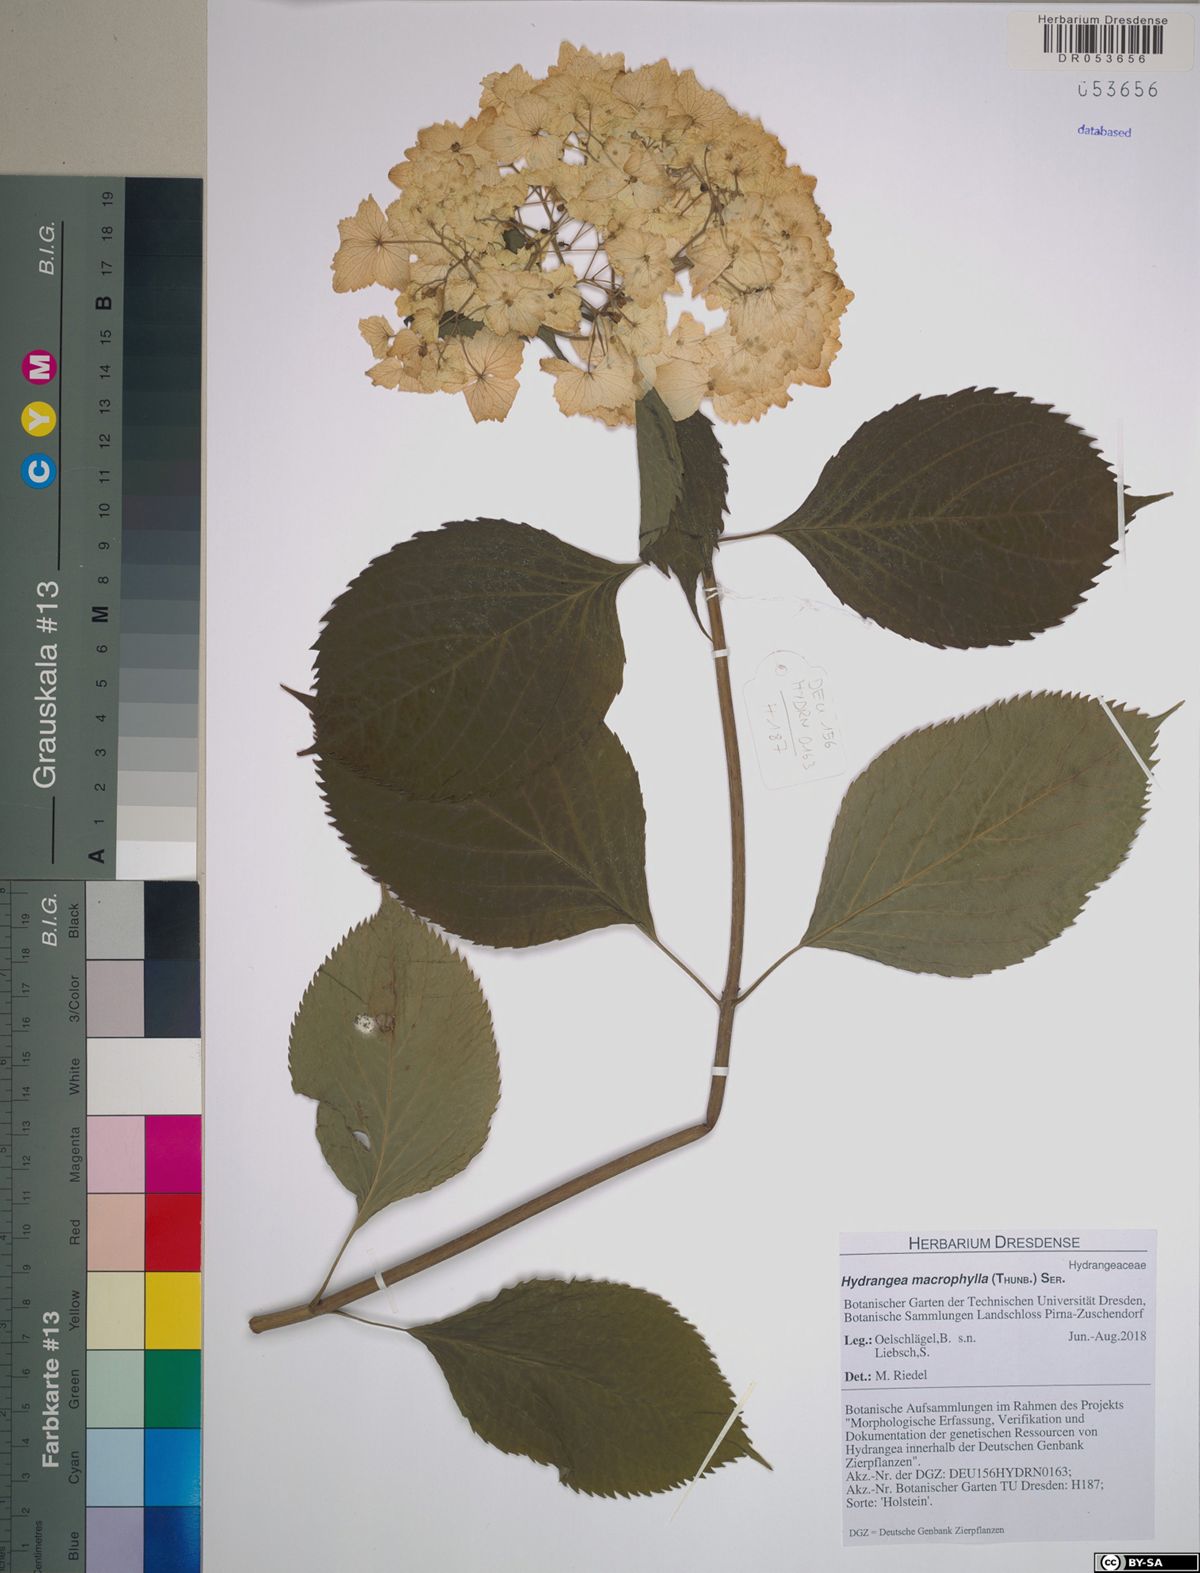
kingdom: Plantae
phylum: Tracheophyta
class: Magnoliopsida
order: Cornales
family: Hydrangeaceae
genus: Hydrangea
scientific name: Hydrangea macrophylla
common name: Hydrangea
